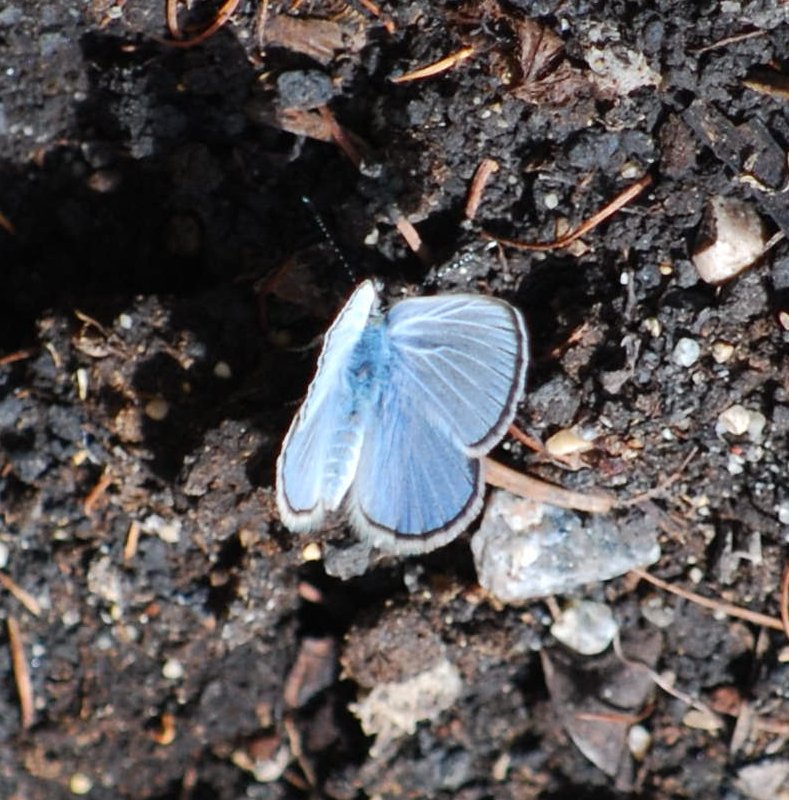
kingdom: Animalia
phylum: Arthropoda
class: Insecta
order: Lepidoptera
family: Lycaenidae
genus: Glaucopsyche
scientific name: Glaucopsyche lygdamus
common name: Silvery Blue
